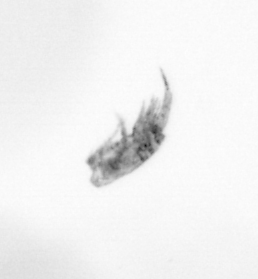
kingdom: Animalia
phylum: Arthropoda
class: Copepoda
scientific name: Copepoda
